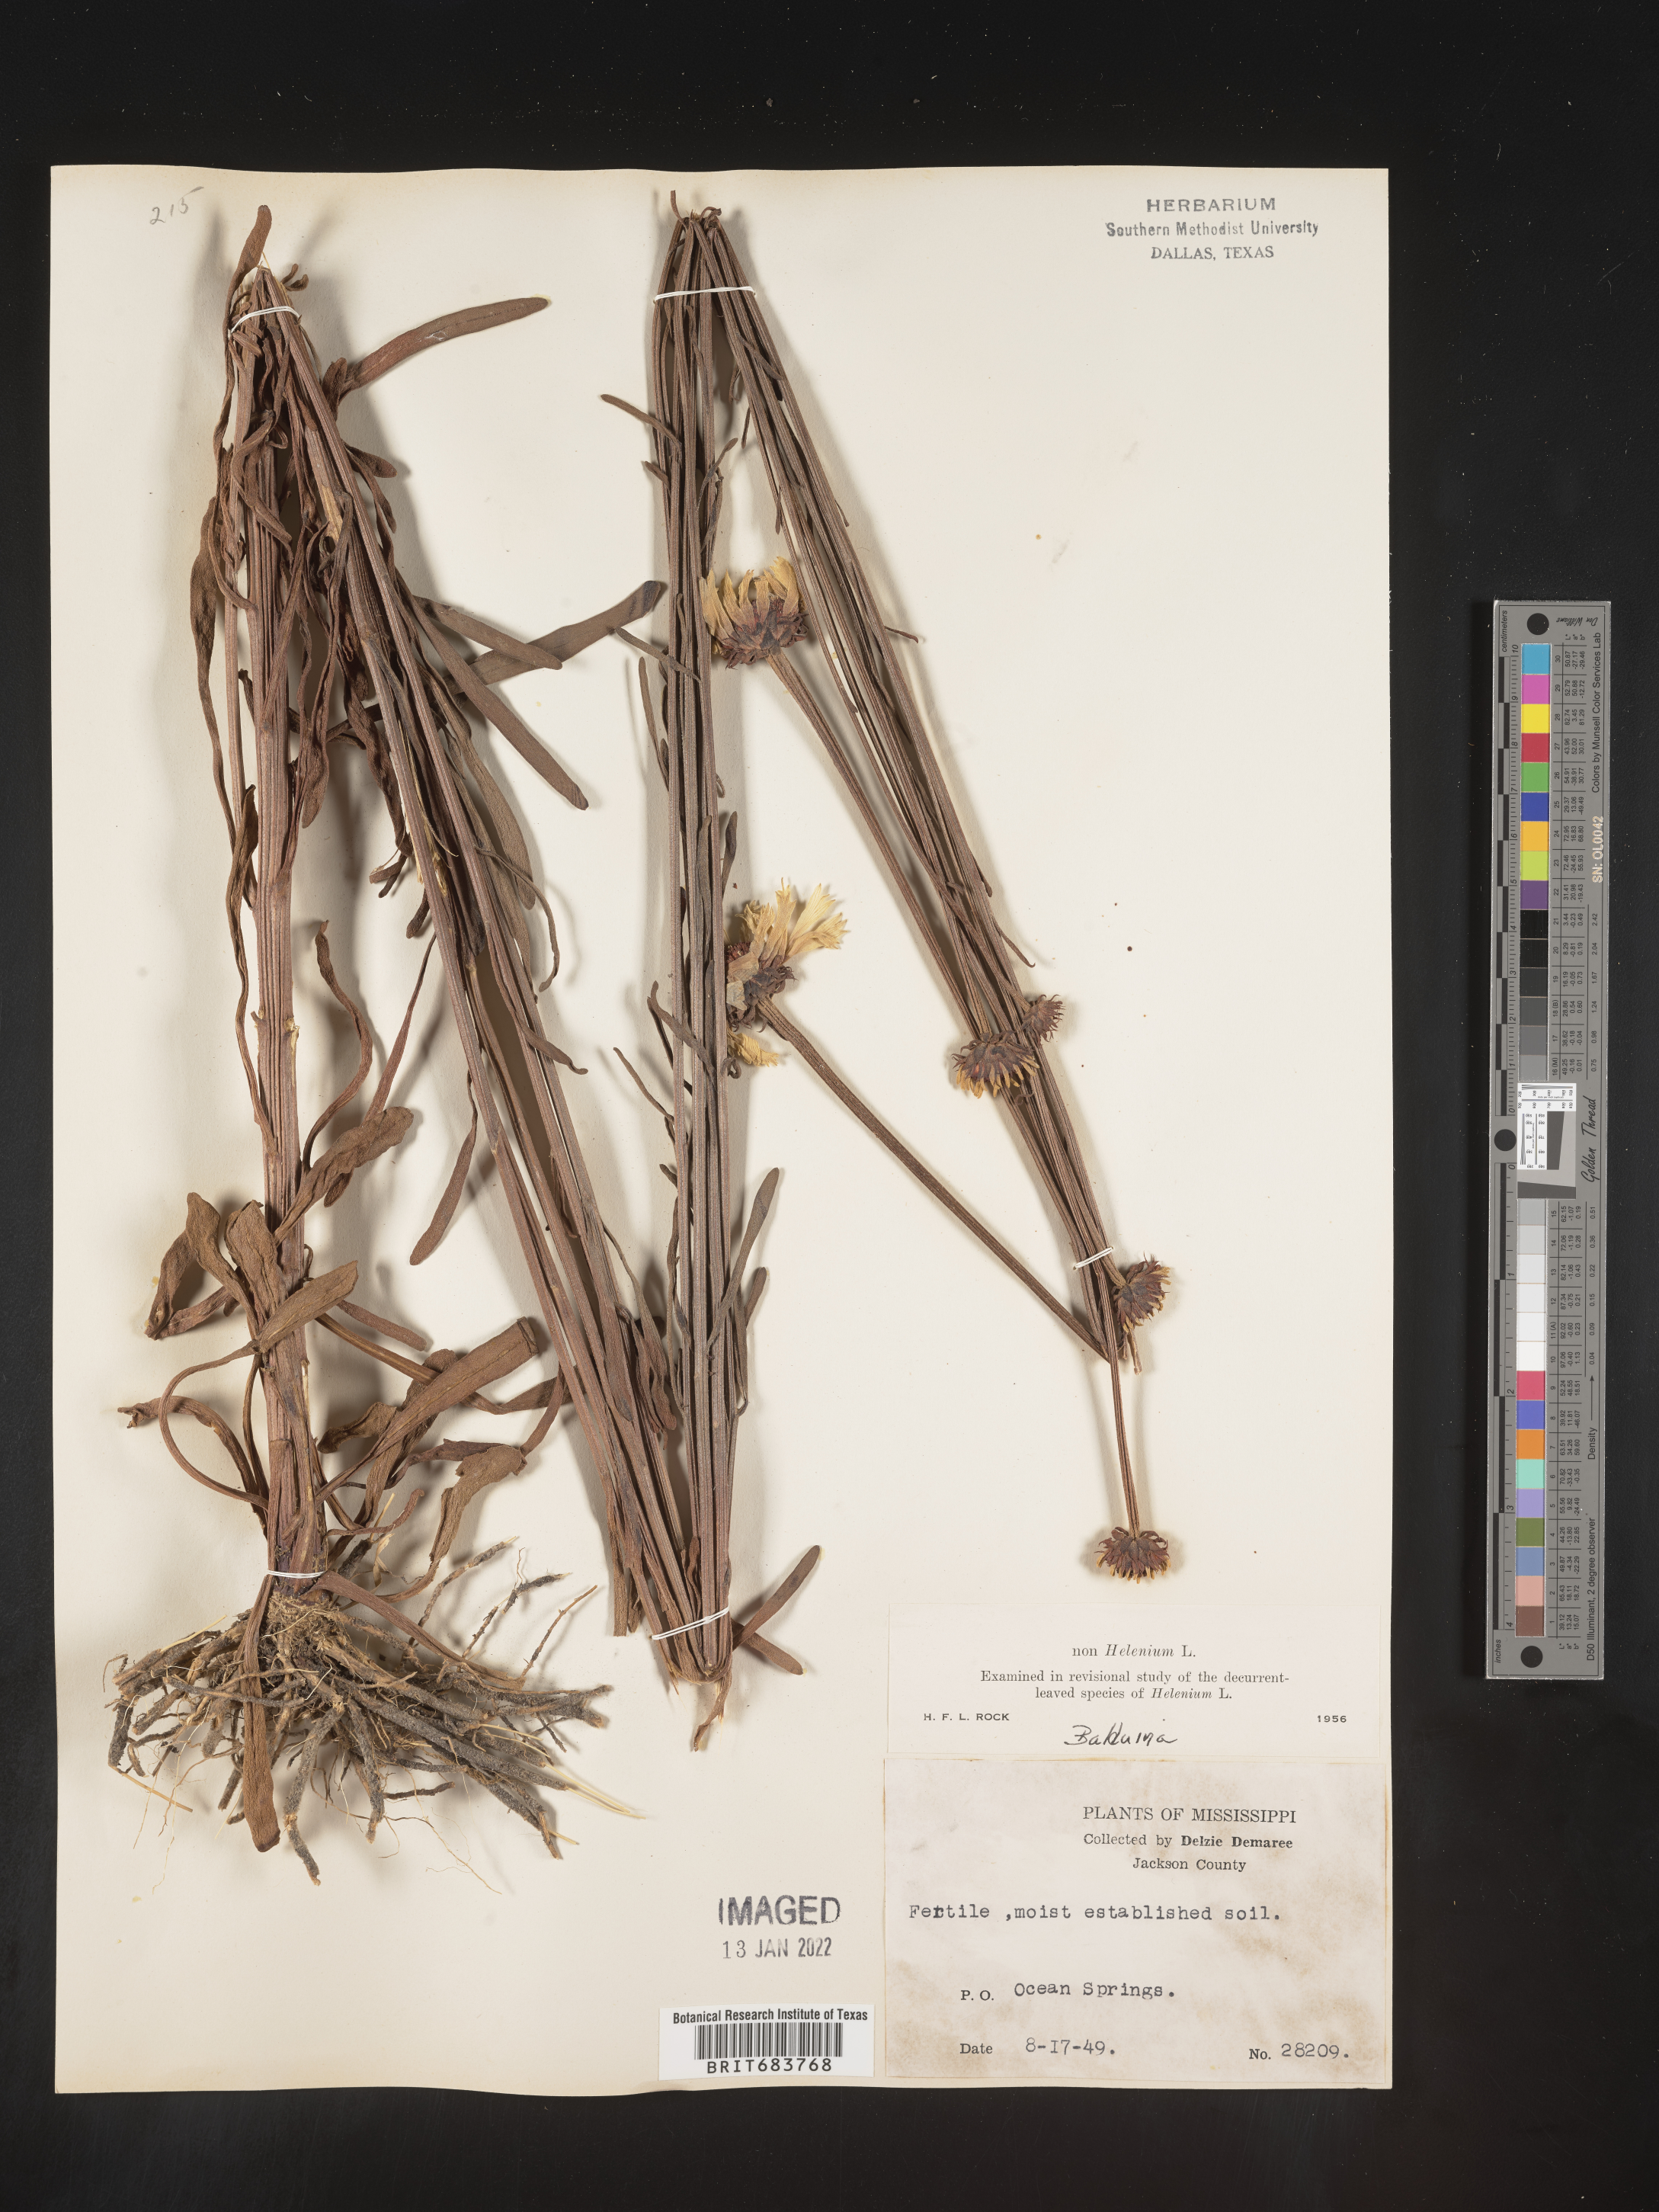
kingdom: Plantae
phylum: Tracheophyta
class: Magnoliopsida
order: Asterales
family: Asteraceae
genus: Balduina
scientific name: Balduina uniflora
